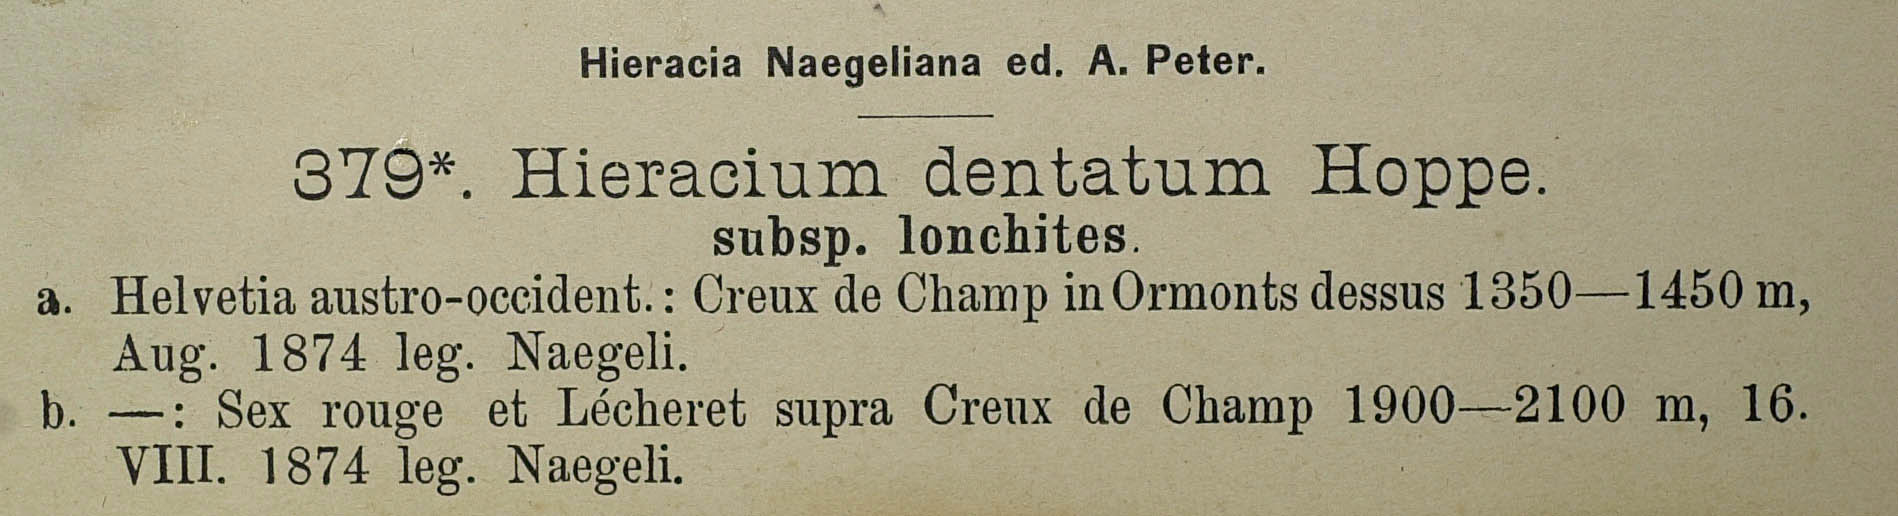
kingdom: Plantae
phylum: Tracheophyta
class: Magnoliopsida
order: Asterales
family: Asteraceae
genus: Hieracium
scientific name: Hieracium dentatum
